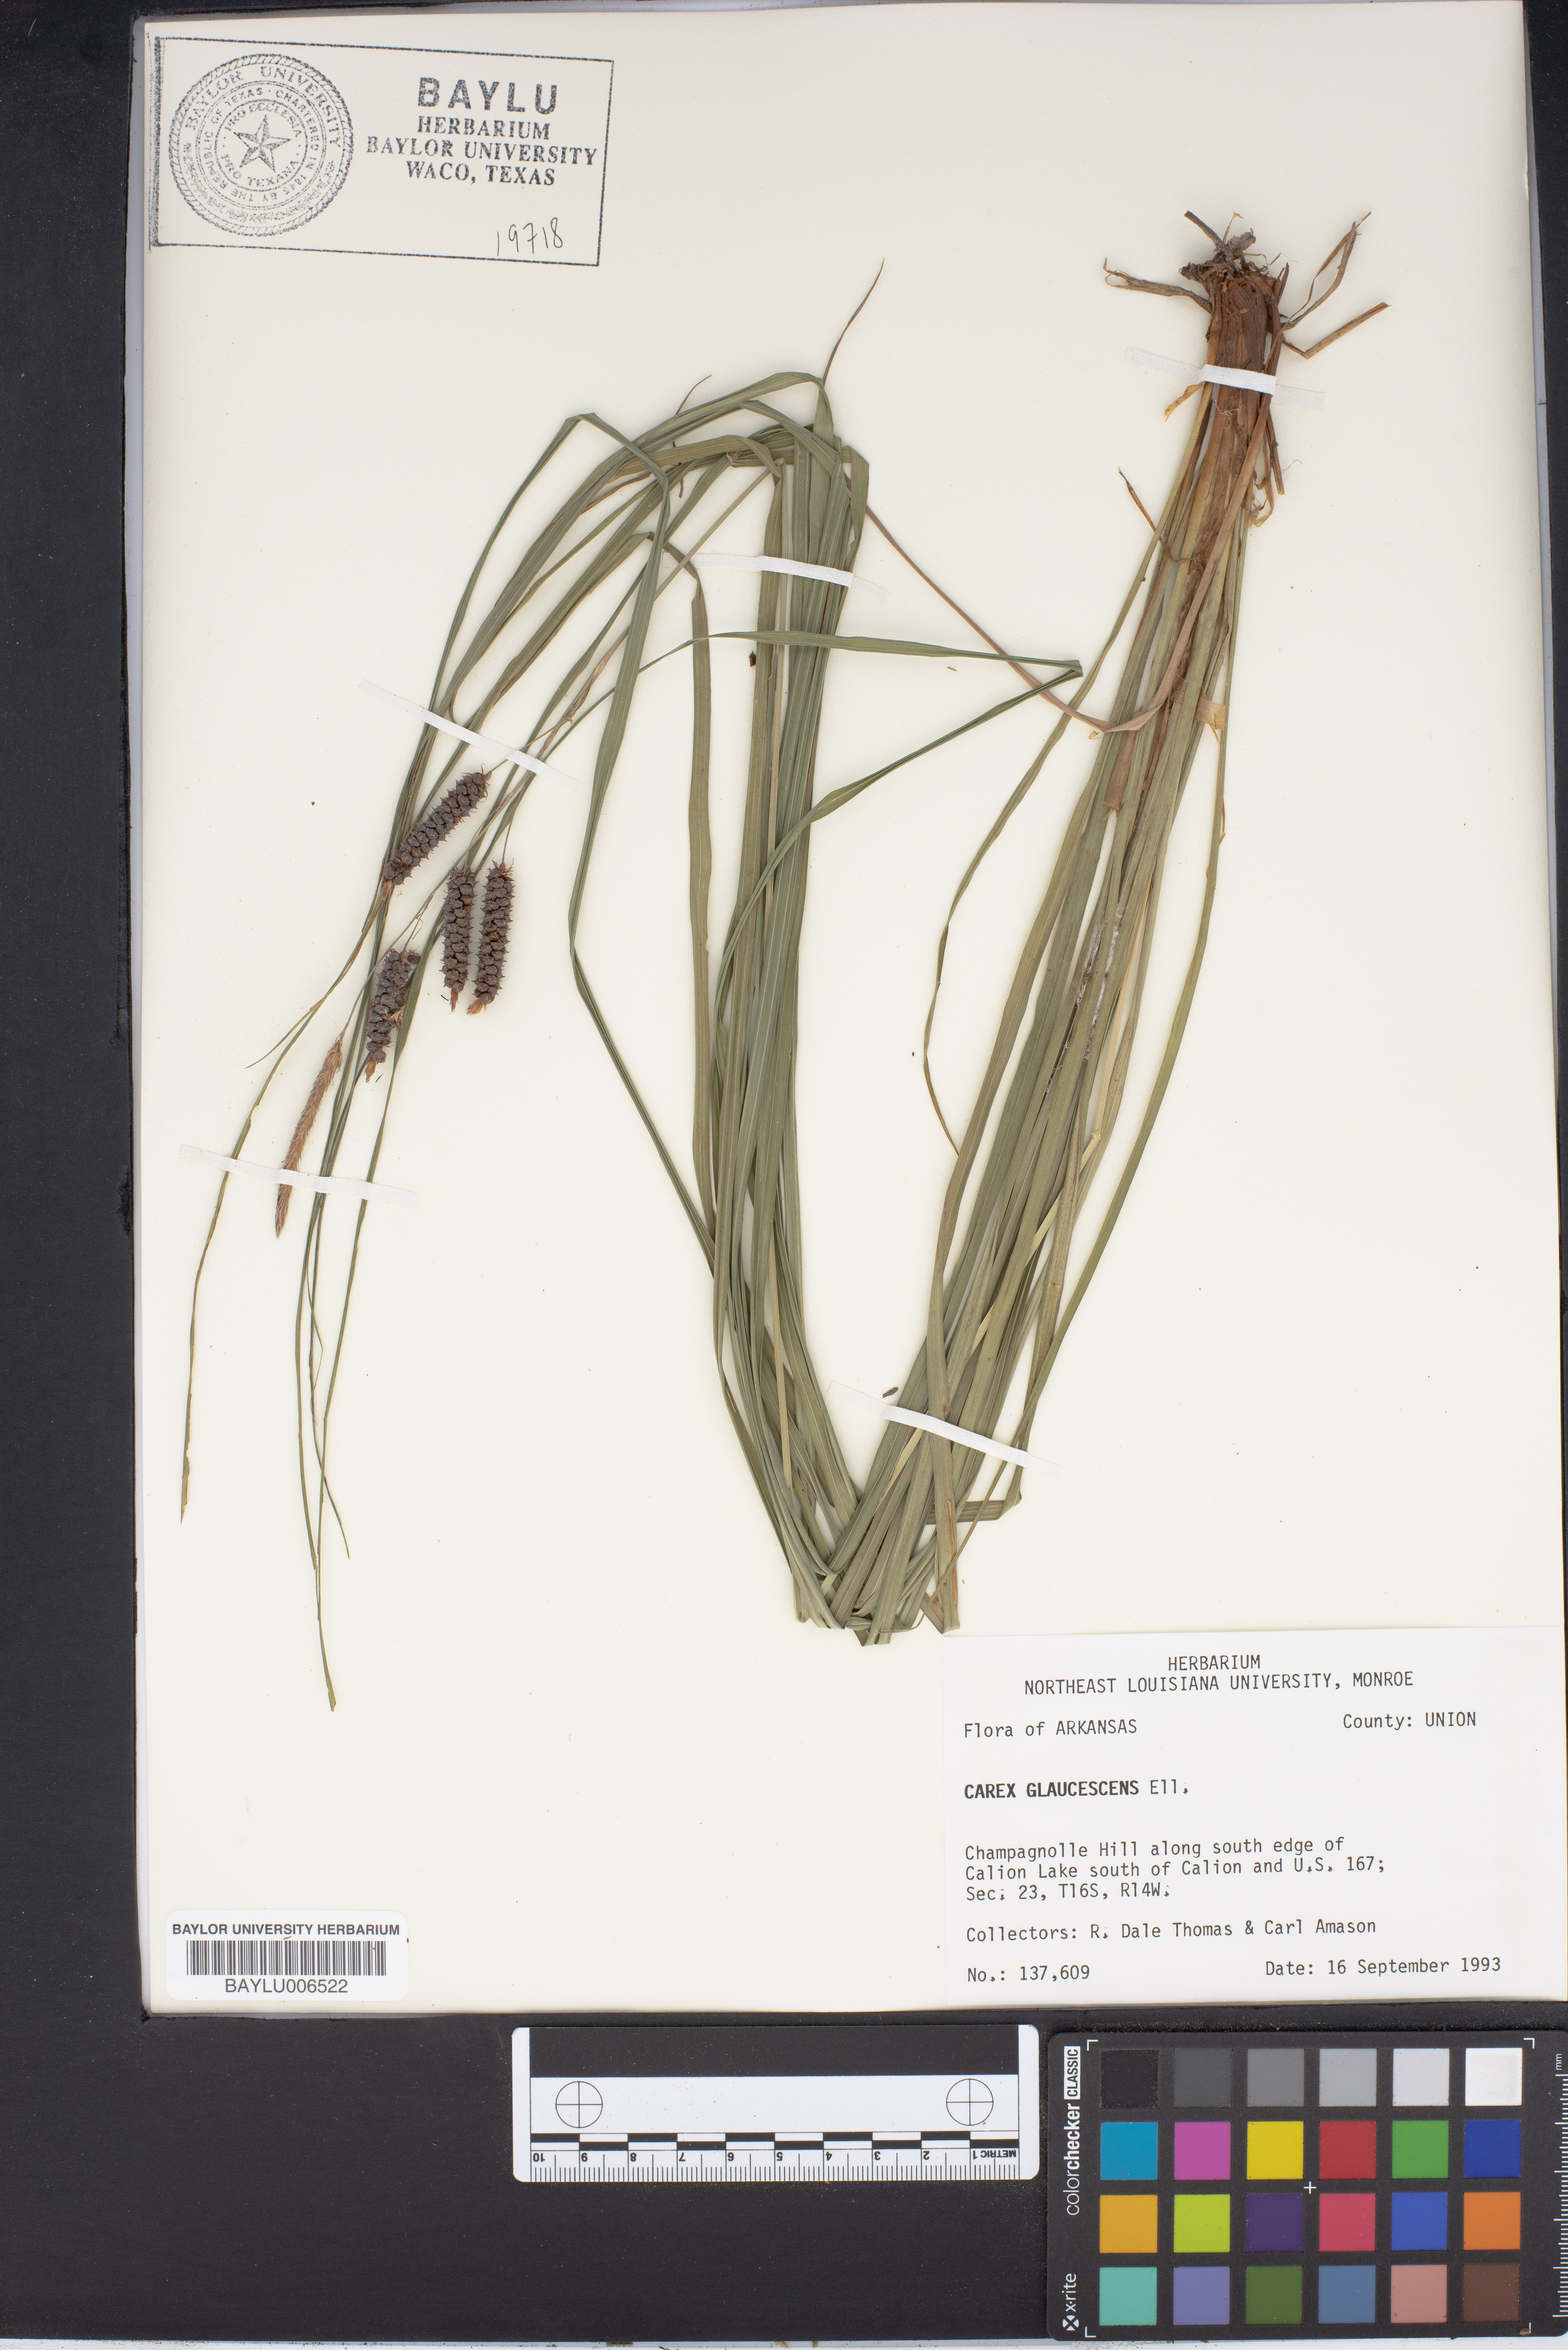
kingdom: Plantae
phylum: Tracheophyta
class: Liliopsida
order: Poales
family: Cyperaceae
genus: Carex
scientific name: Carex glaucescens
